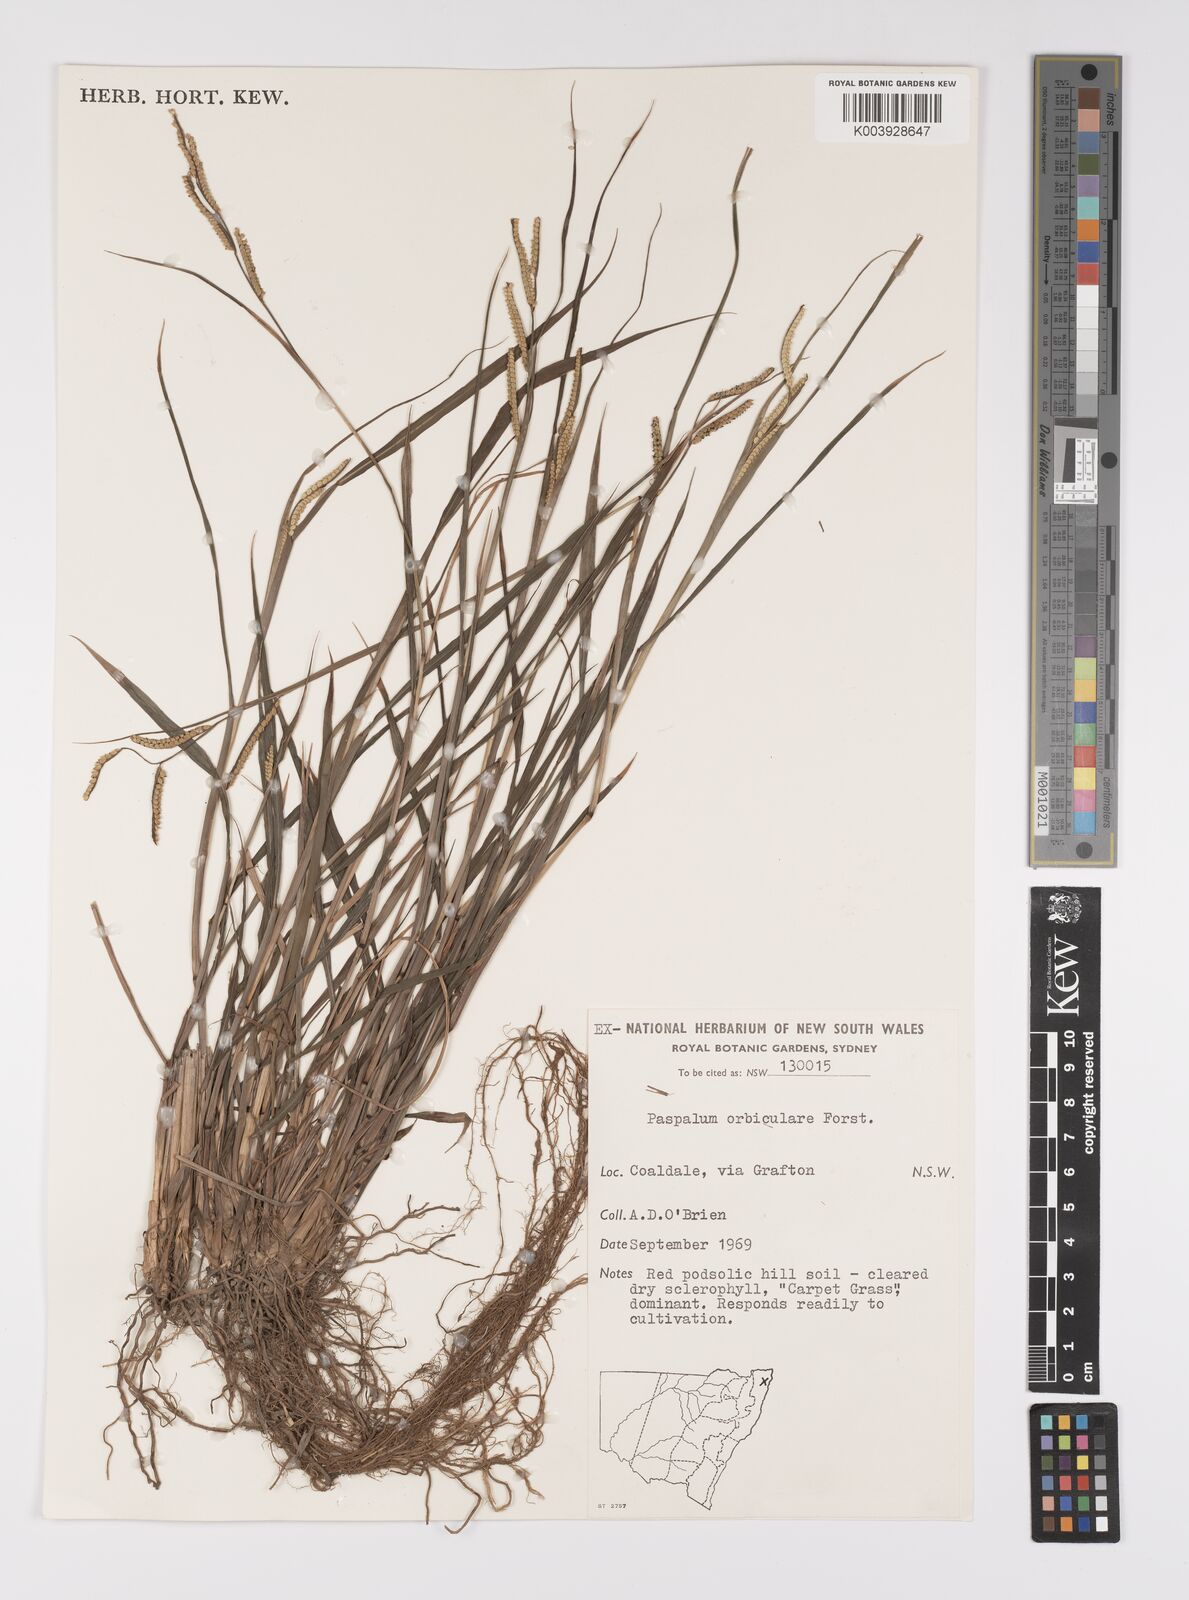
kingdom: Plantae
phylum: Tracheophyta
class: Liliopsida
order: Poales
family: Poaceae
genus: Paspalum
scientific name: Paspalum scrobiculatum
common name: Kodo millet
